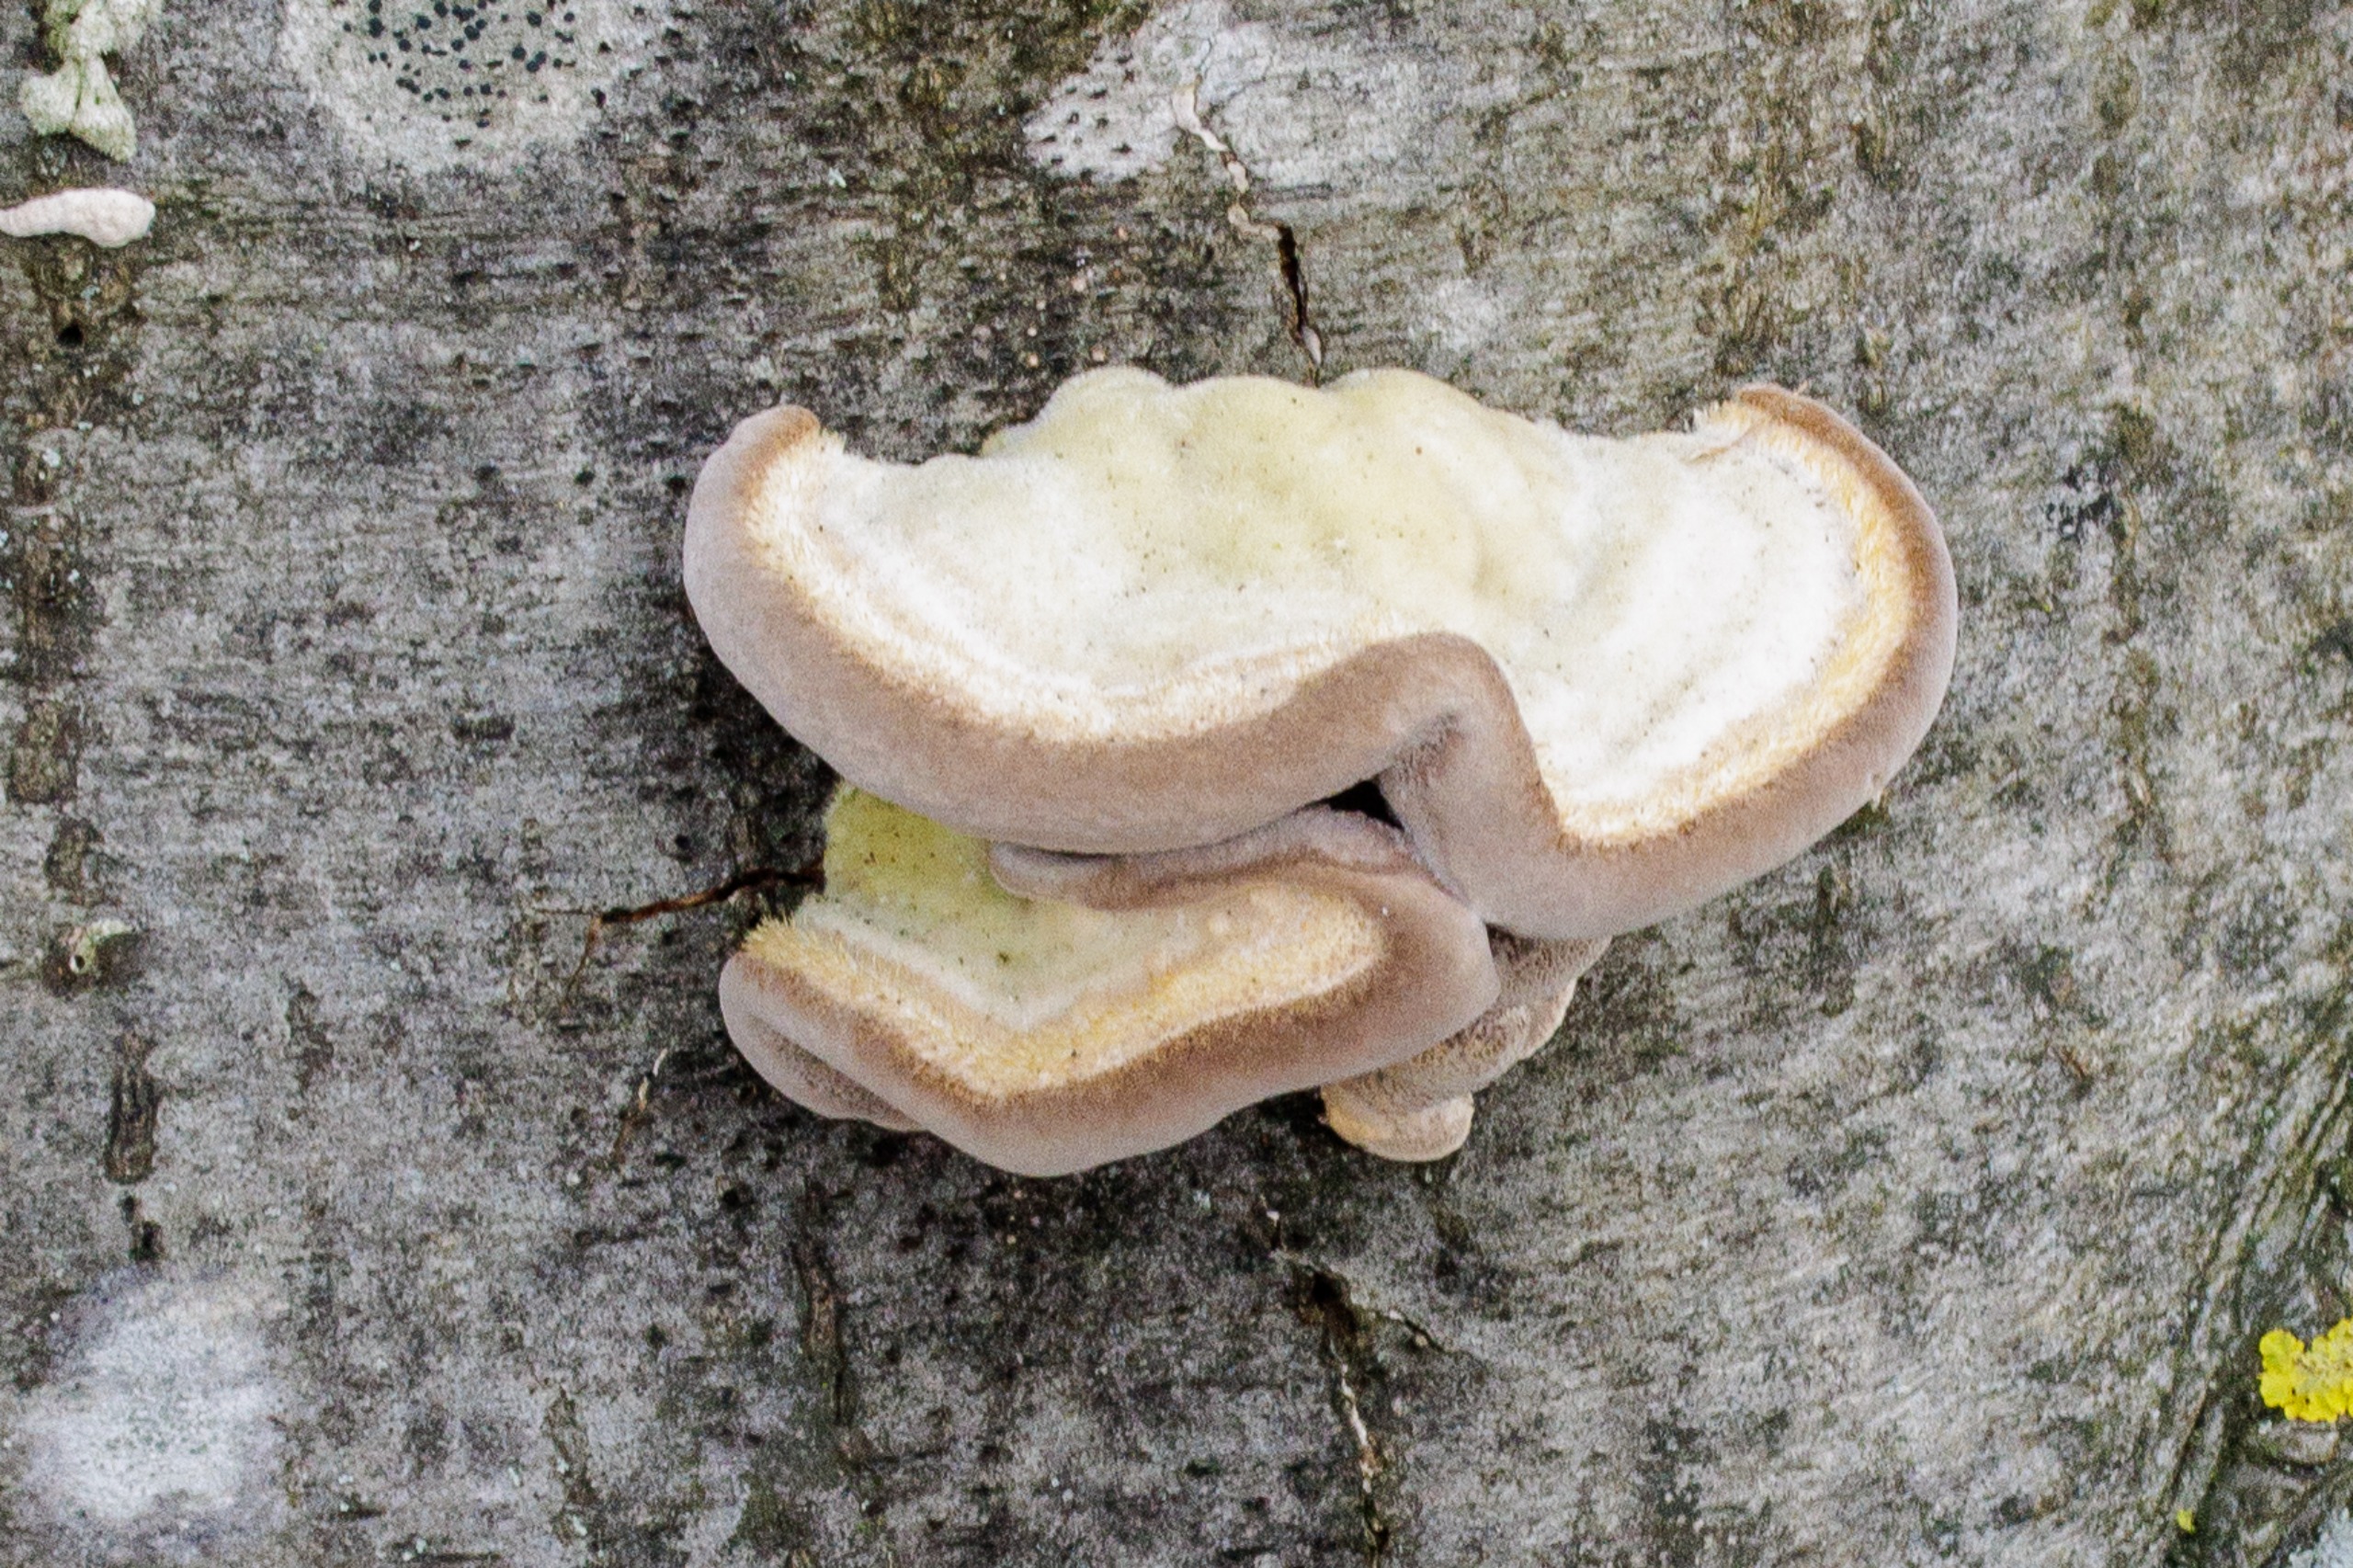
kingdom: Fungi
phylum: Basidiomycota
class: Agaricomycetes
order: Polyporales
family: Polyporaceae
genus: Trametes
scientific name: Trametes hirsuta
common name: Håret læderporesvamp
